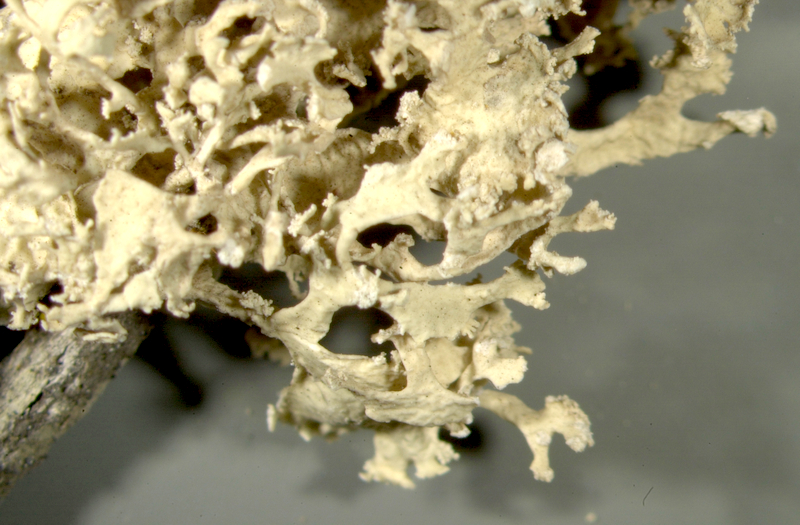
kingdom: Fungi
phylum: Ascomycota
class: Lecanoromycetes
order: Lecanorales
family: Ramalinaceae
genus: Ramalina
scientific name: Ramalina
